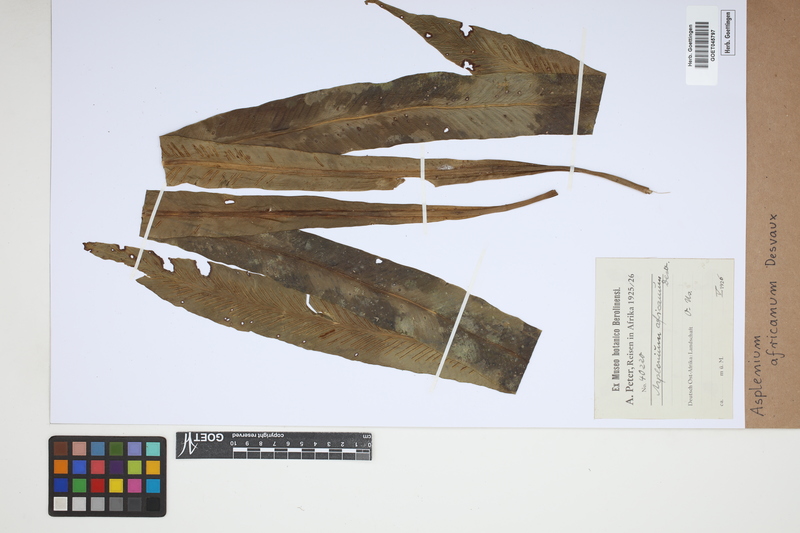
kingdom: Plantae
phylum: Tracheophyta
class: Polypodiopsida
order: Polypodiales
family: Aspleniaceae
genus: Asplenium
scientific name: Asplenium africanum
